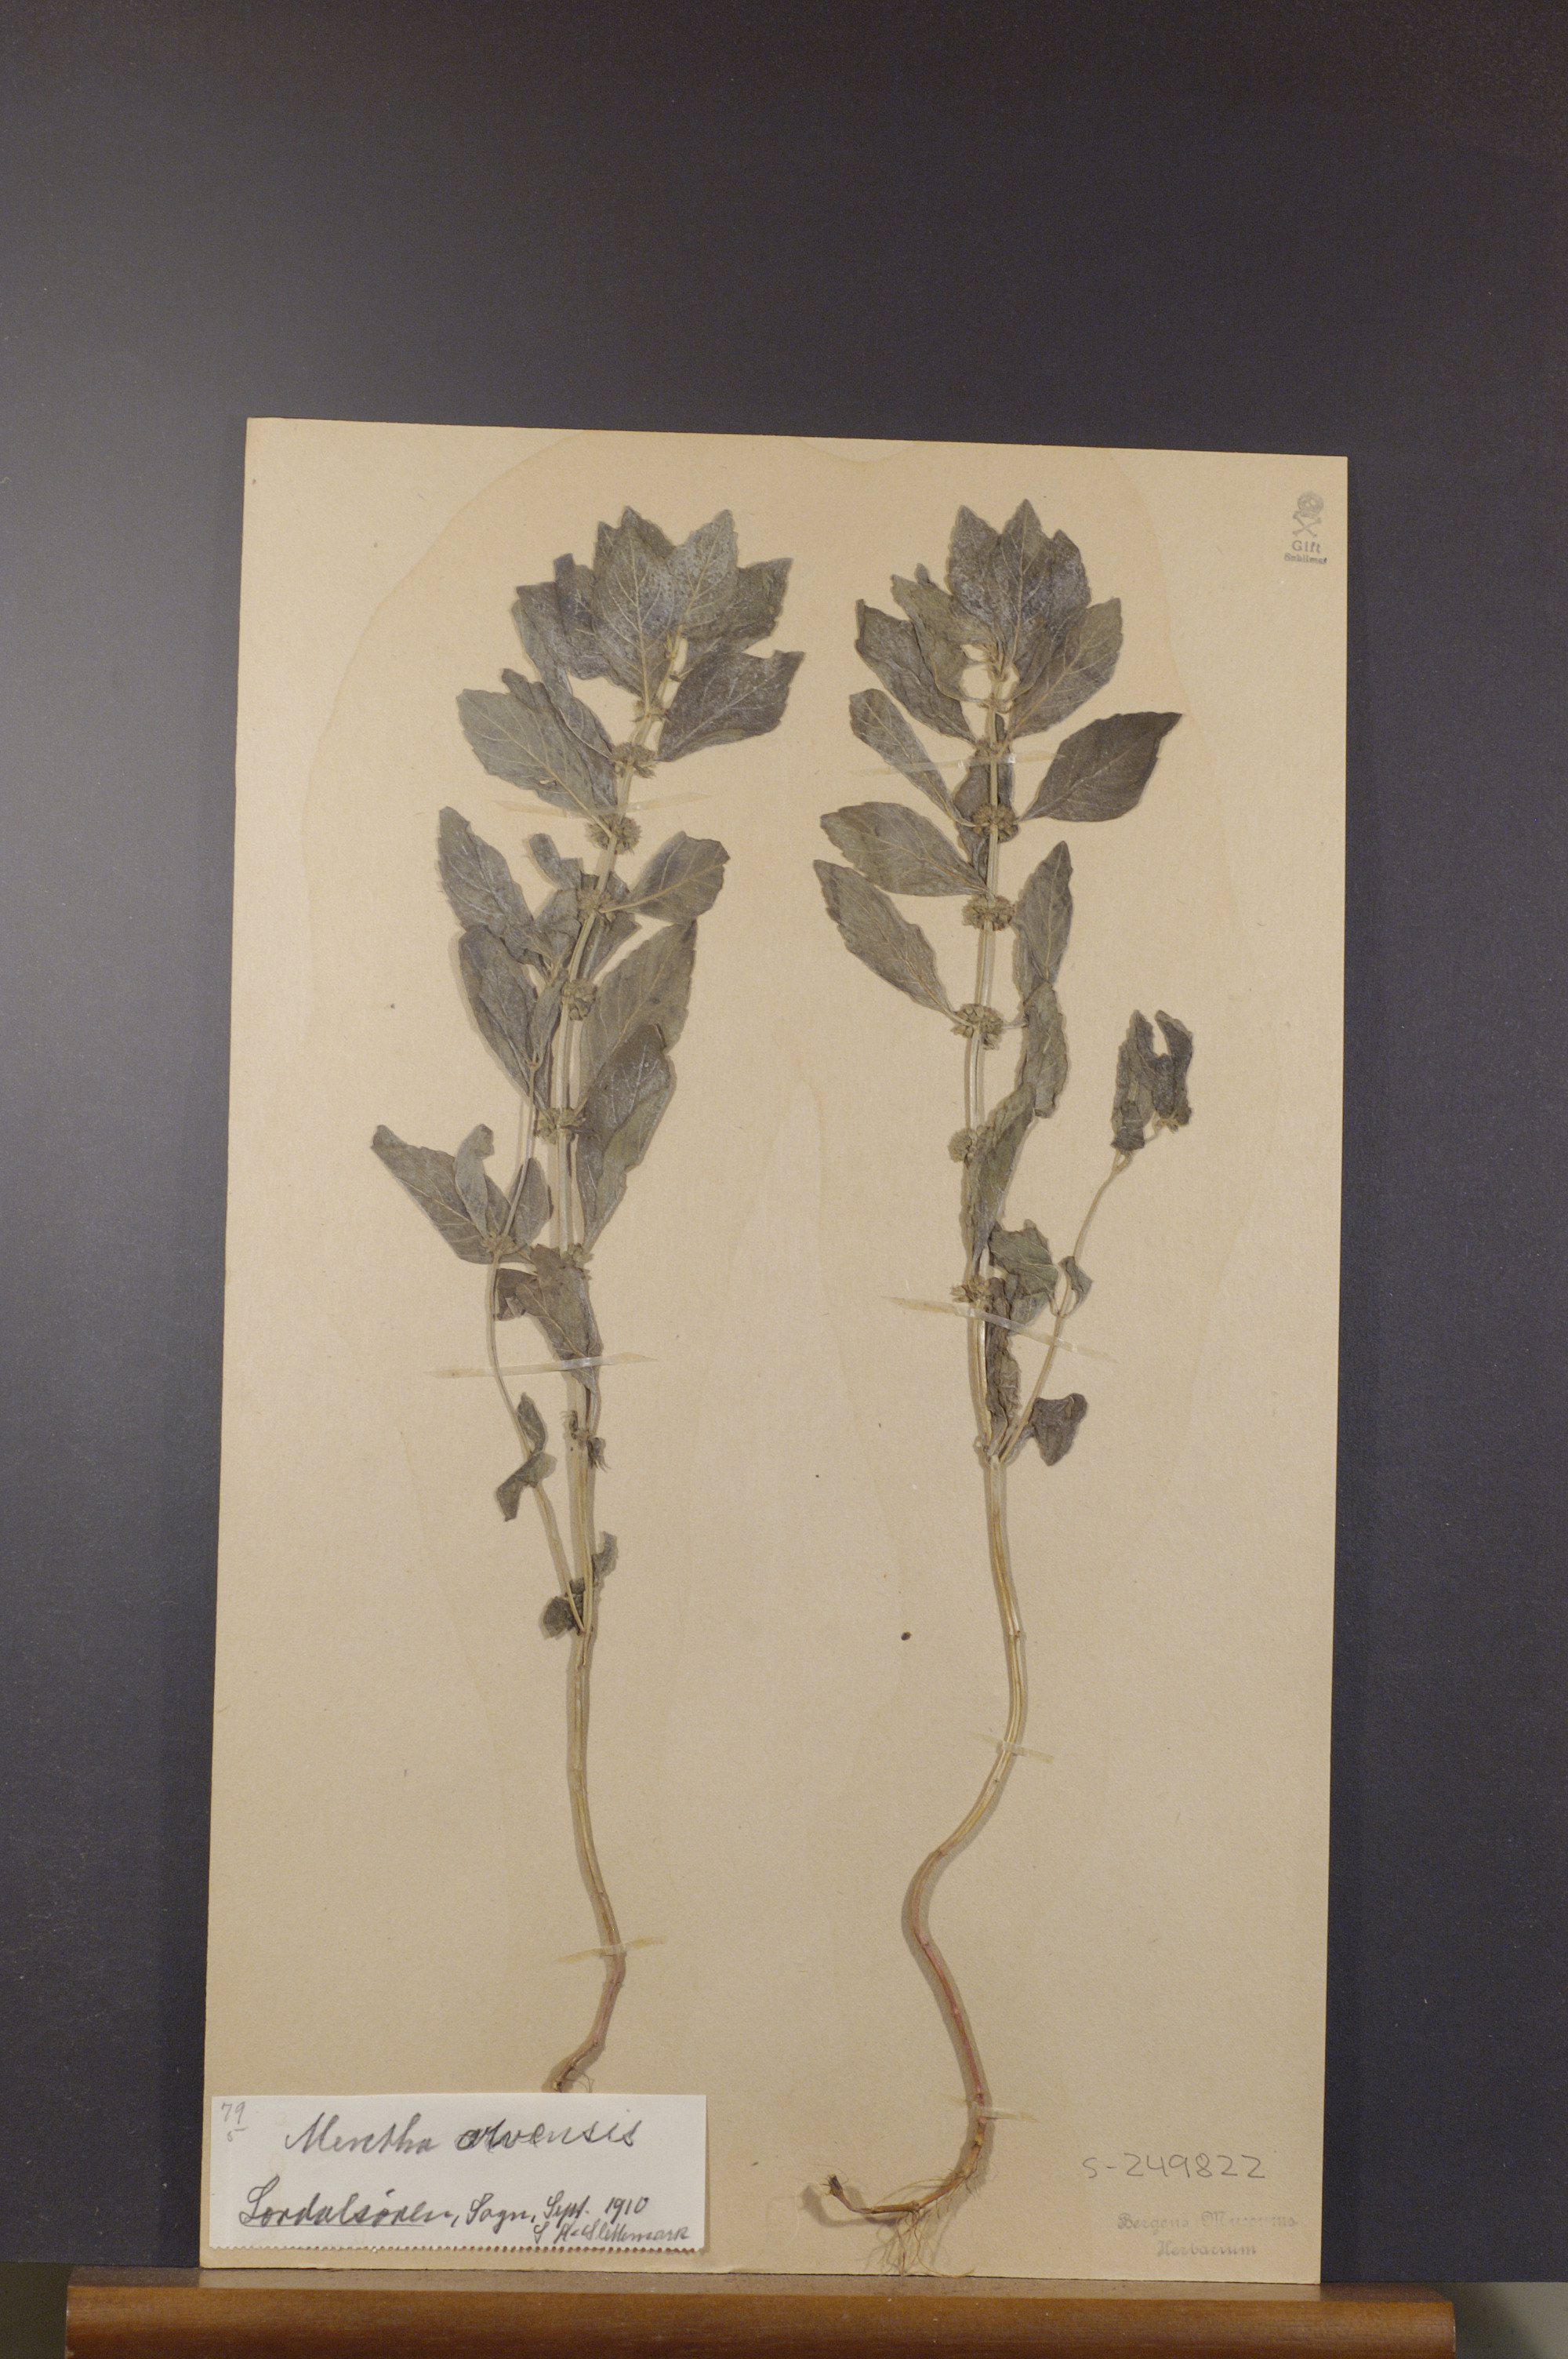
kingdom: Plantae
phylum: Tracheophyta
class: Magnoliopsida
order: Lamiales
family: Lamiaceae
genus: Mentha
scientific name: Mentha arvensis
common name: Corn mint
